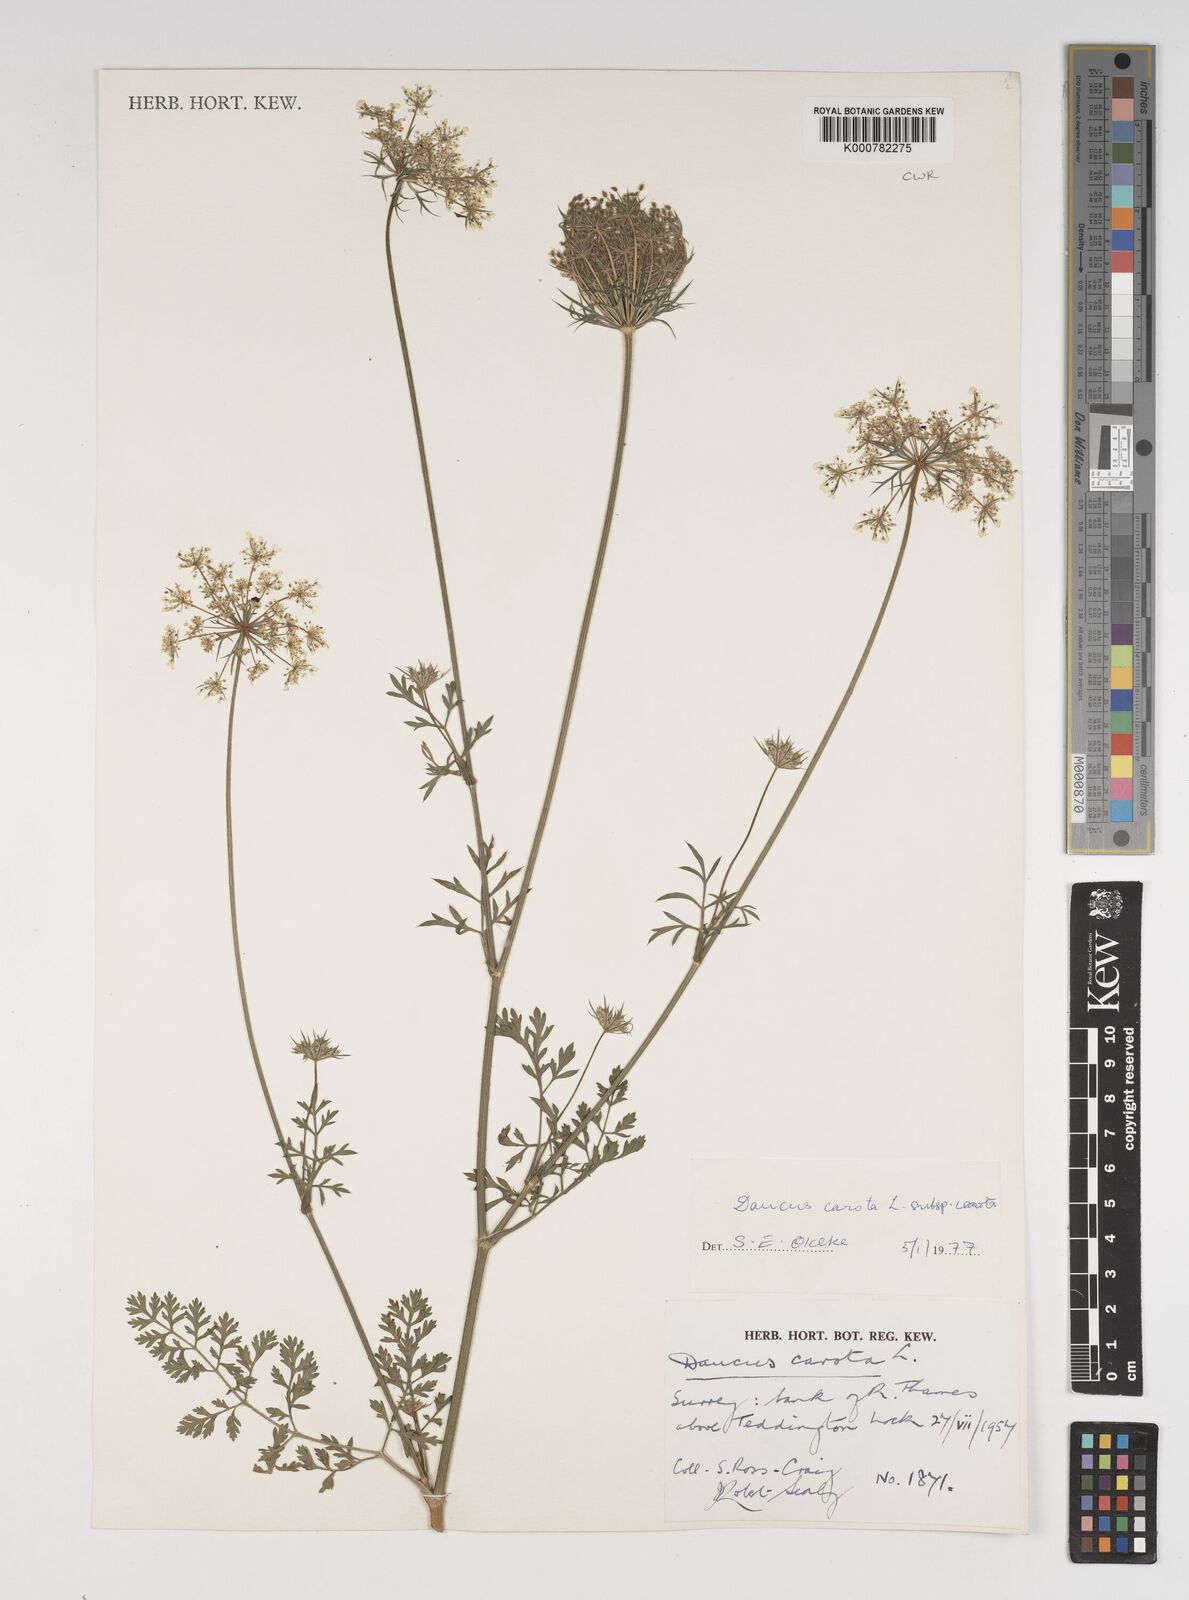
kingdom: Plantae
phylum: Tracheophyta
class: Magnoliopsida
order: Apiales
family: Apiaceae
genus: Daucus
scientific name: Daucus carota
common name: Wild carrot
